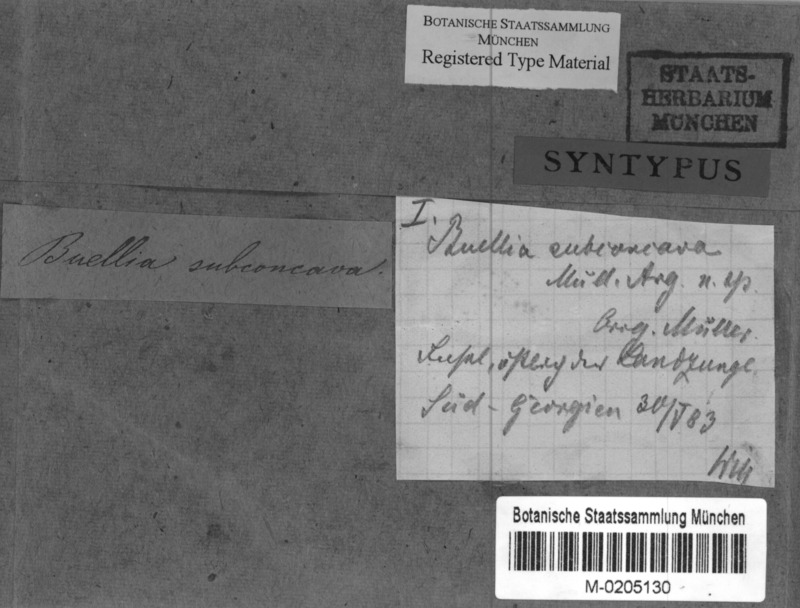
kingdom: Fungi
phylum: Ascomycota
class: Lecanoromycetes
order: Caliciales
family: Caliciaceae
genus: Buellia
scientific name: Buellia
